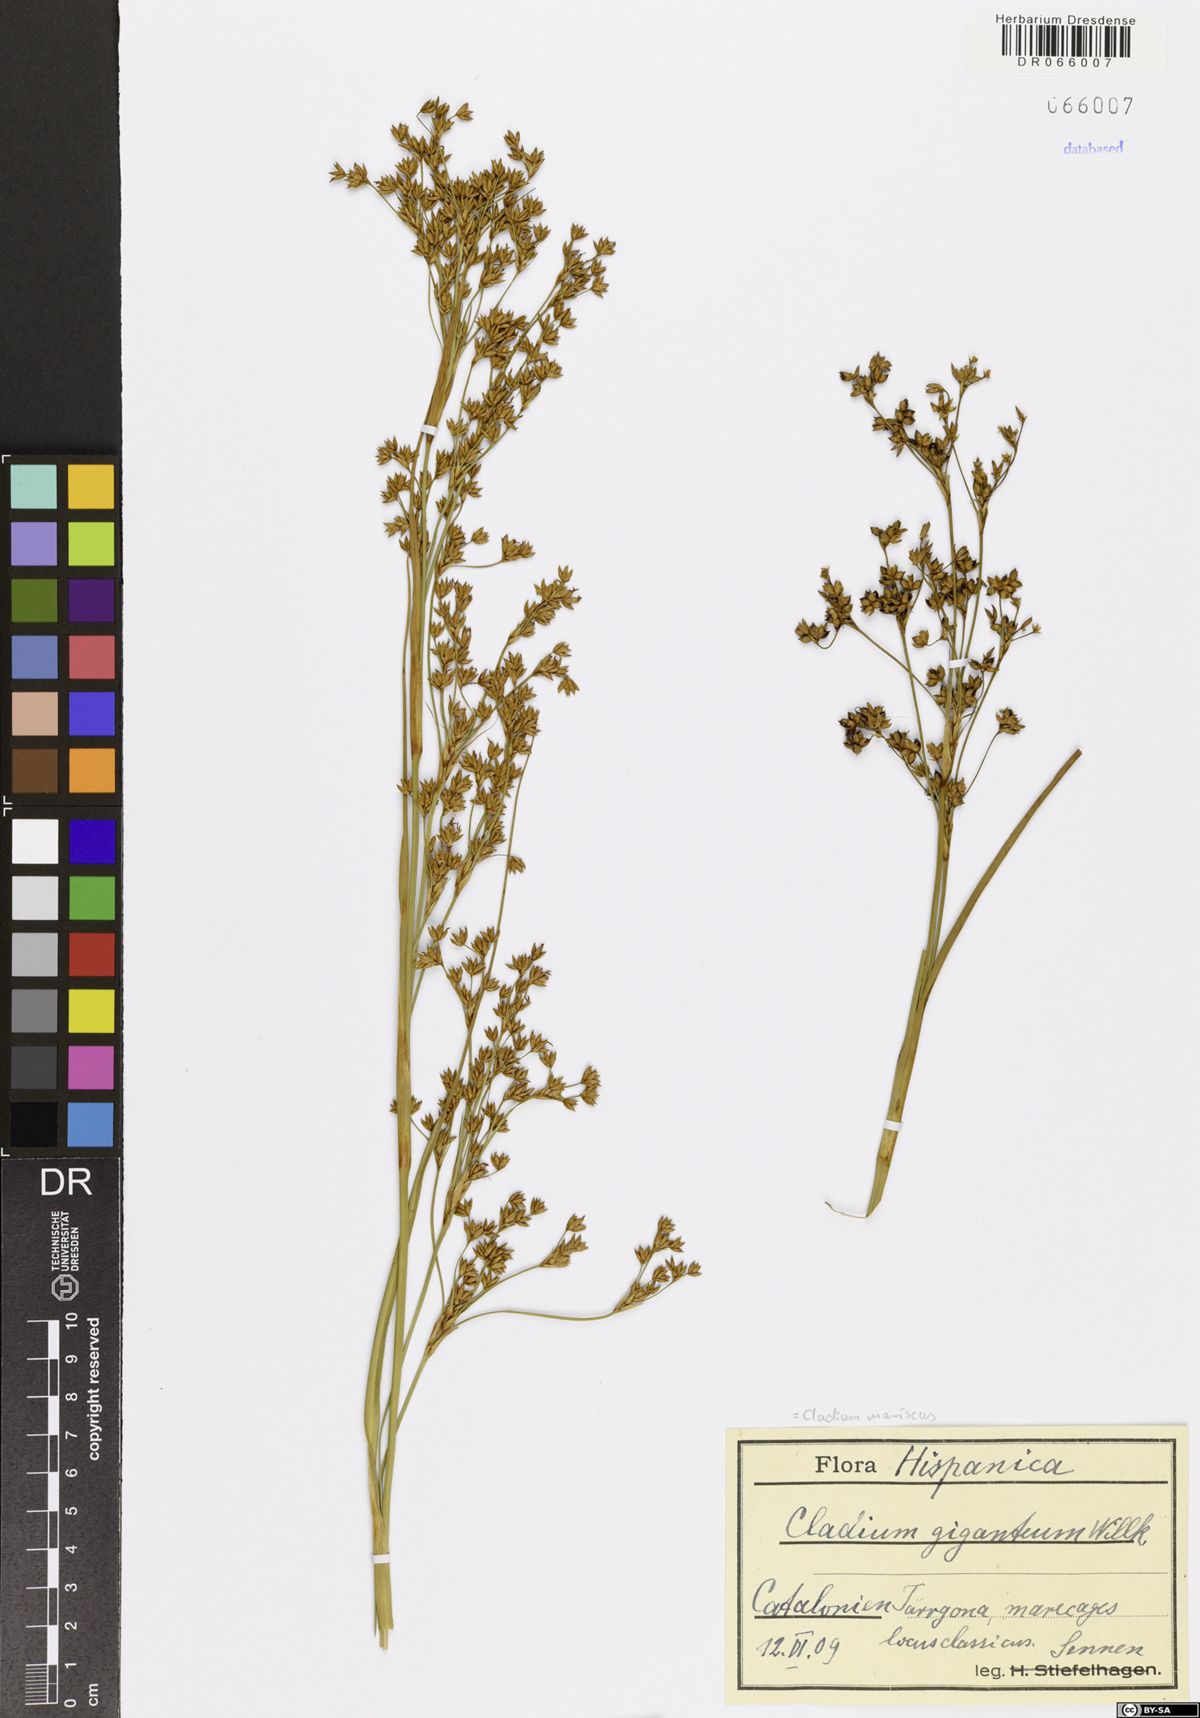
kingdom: Plantae
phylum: Tracheophyta
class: Liliopsida
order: Poales
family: Cyperaceae
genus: Cladium
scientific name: Cladium mariscus
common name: Great fen-sedge
